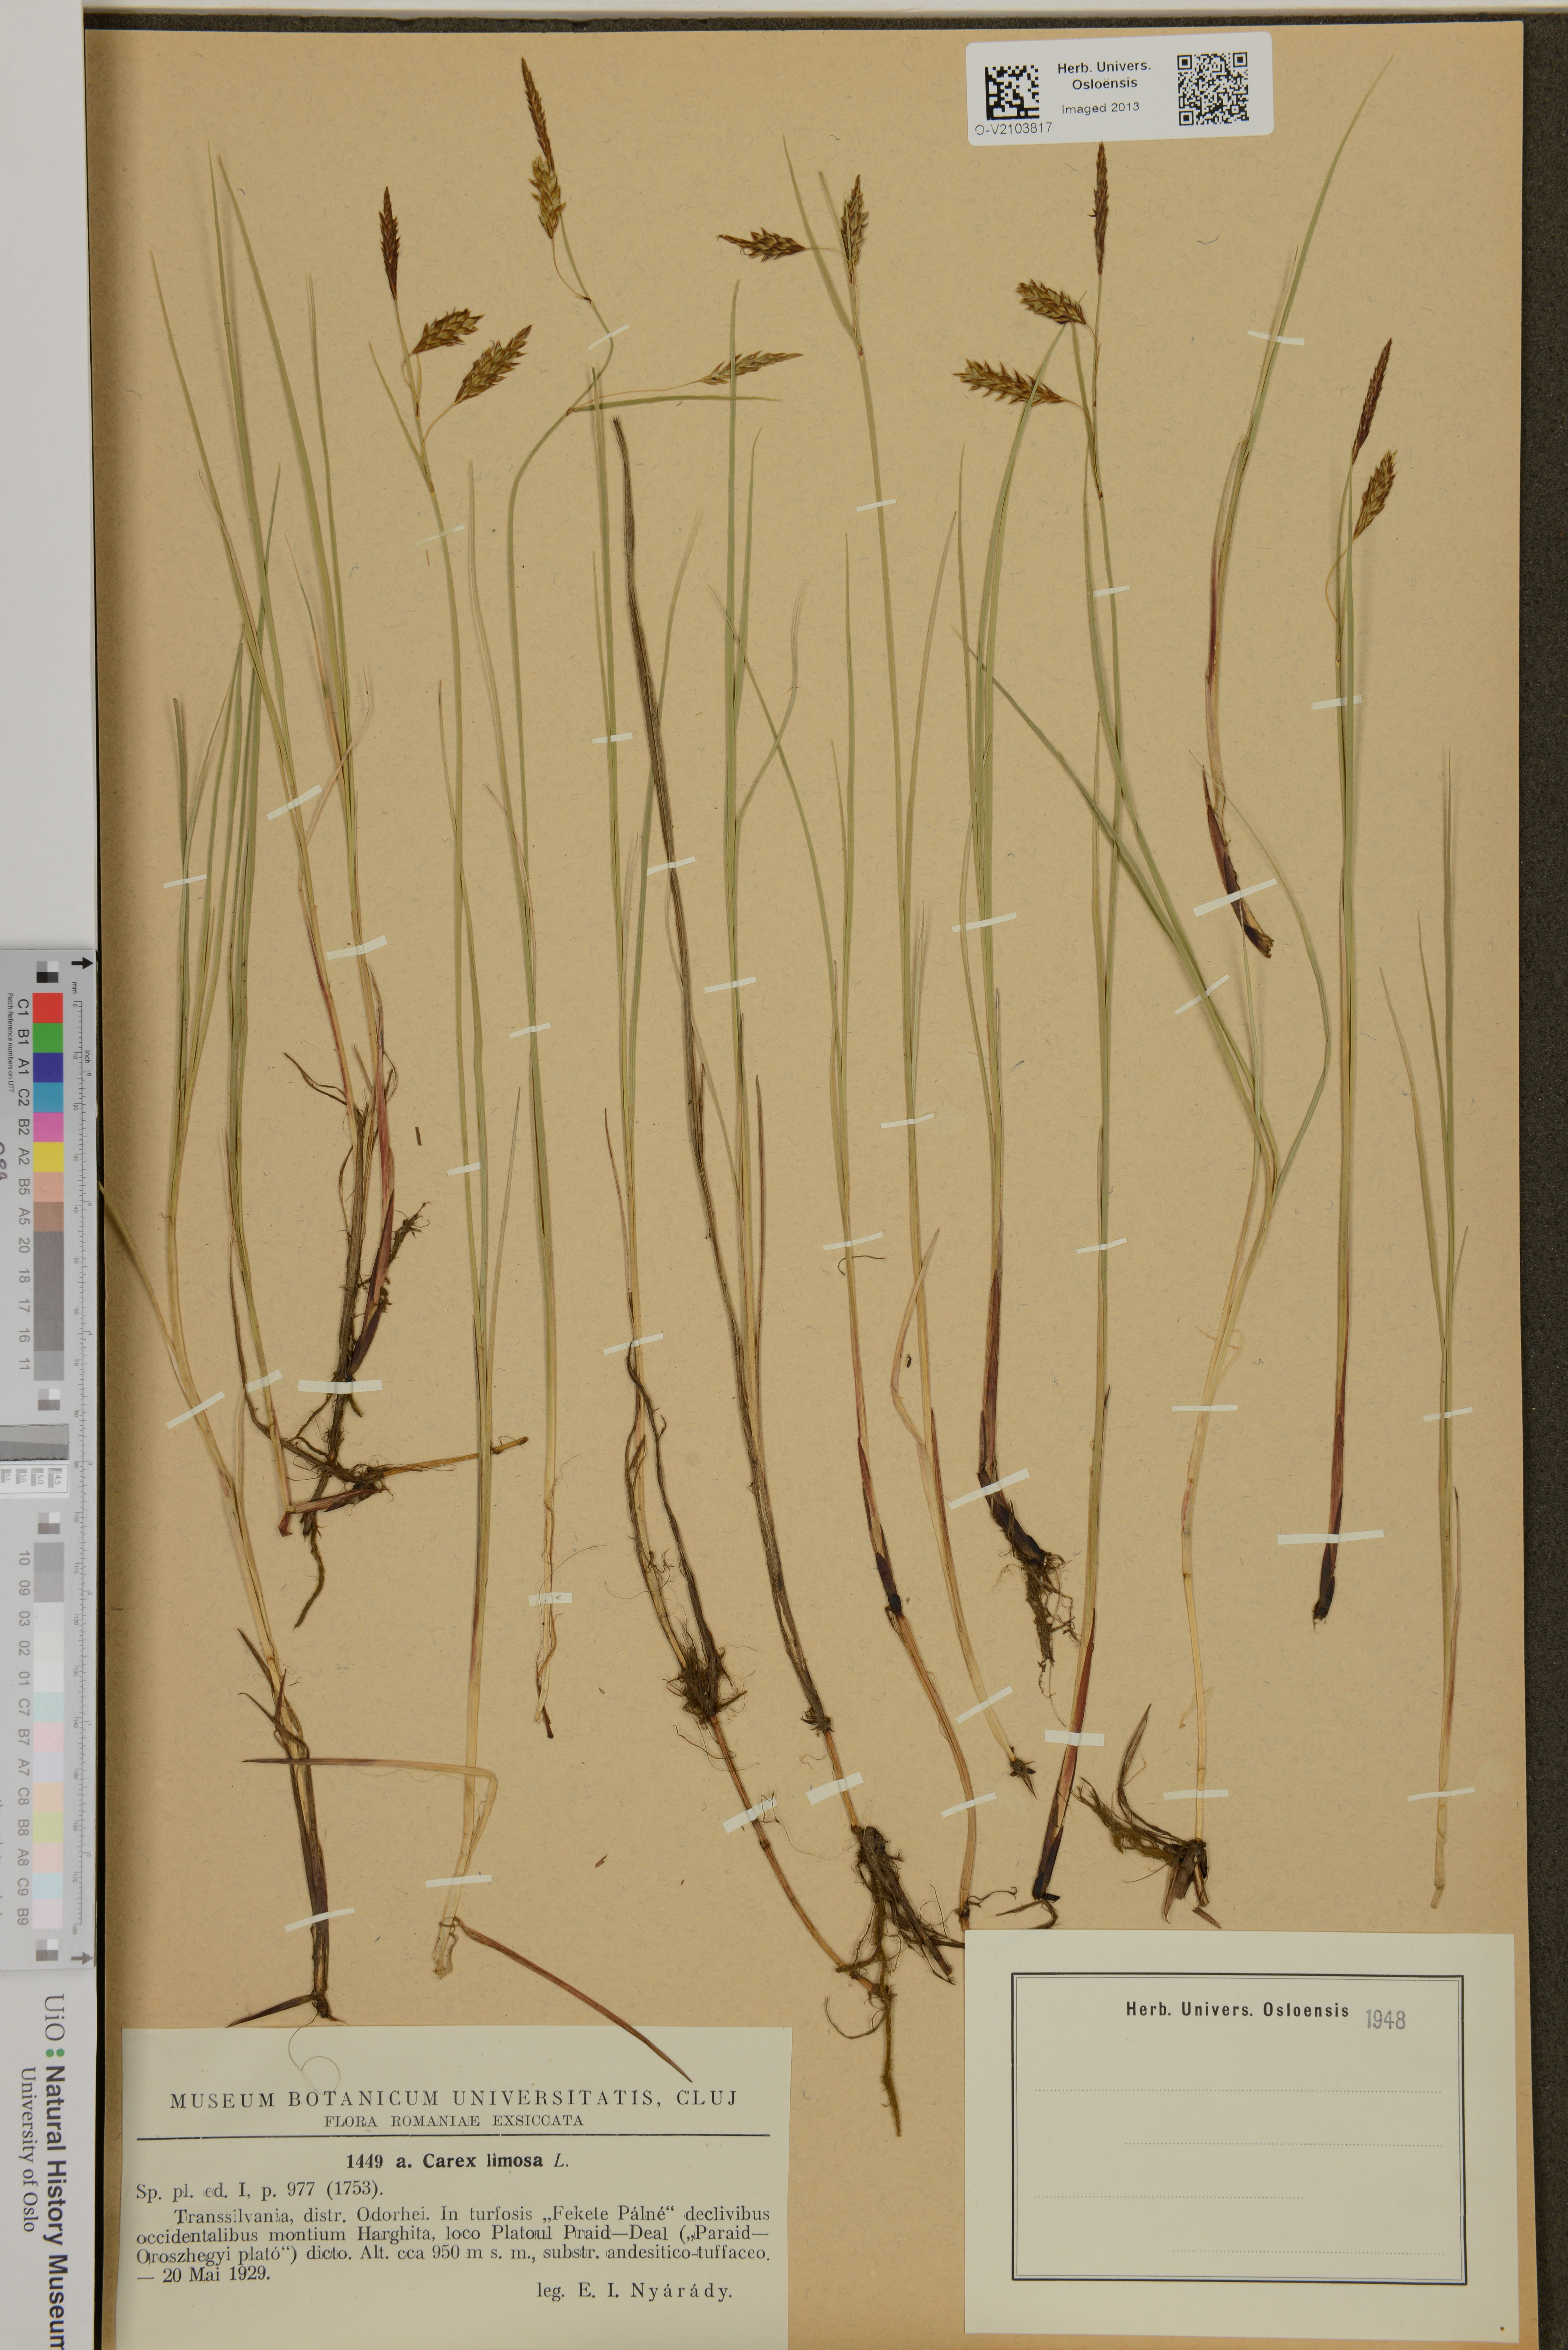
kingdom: Plantae
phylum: Tracheophyta
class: Liliopsida
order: Poales
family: Cyperaceae
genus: Carex
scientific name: Carex limosa
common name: Bog sedge
